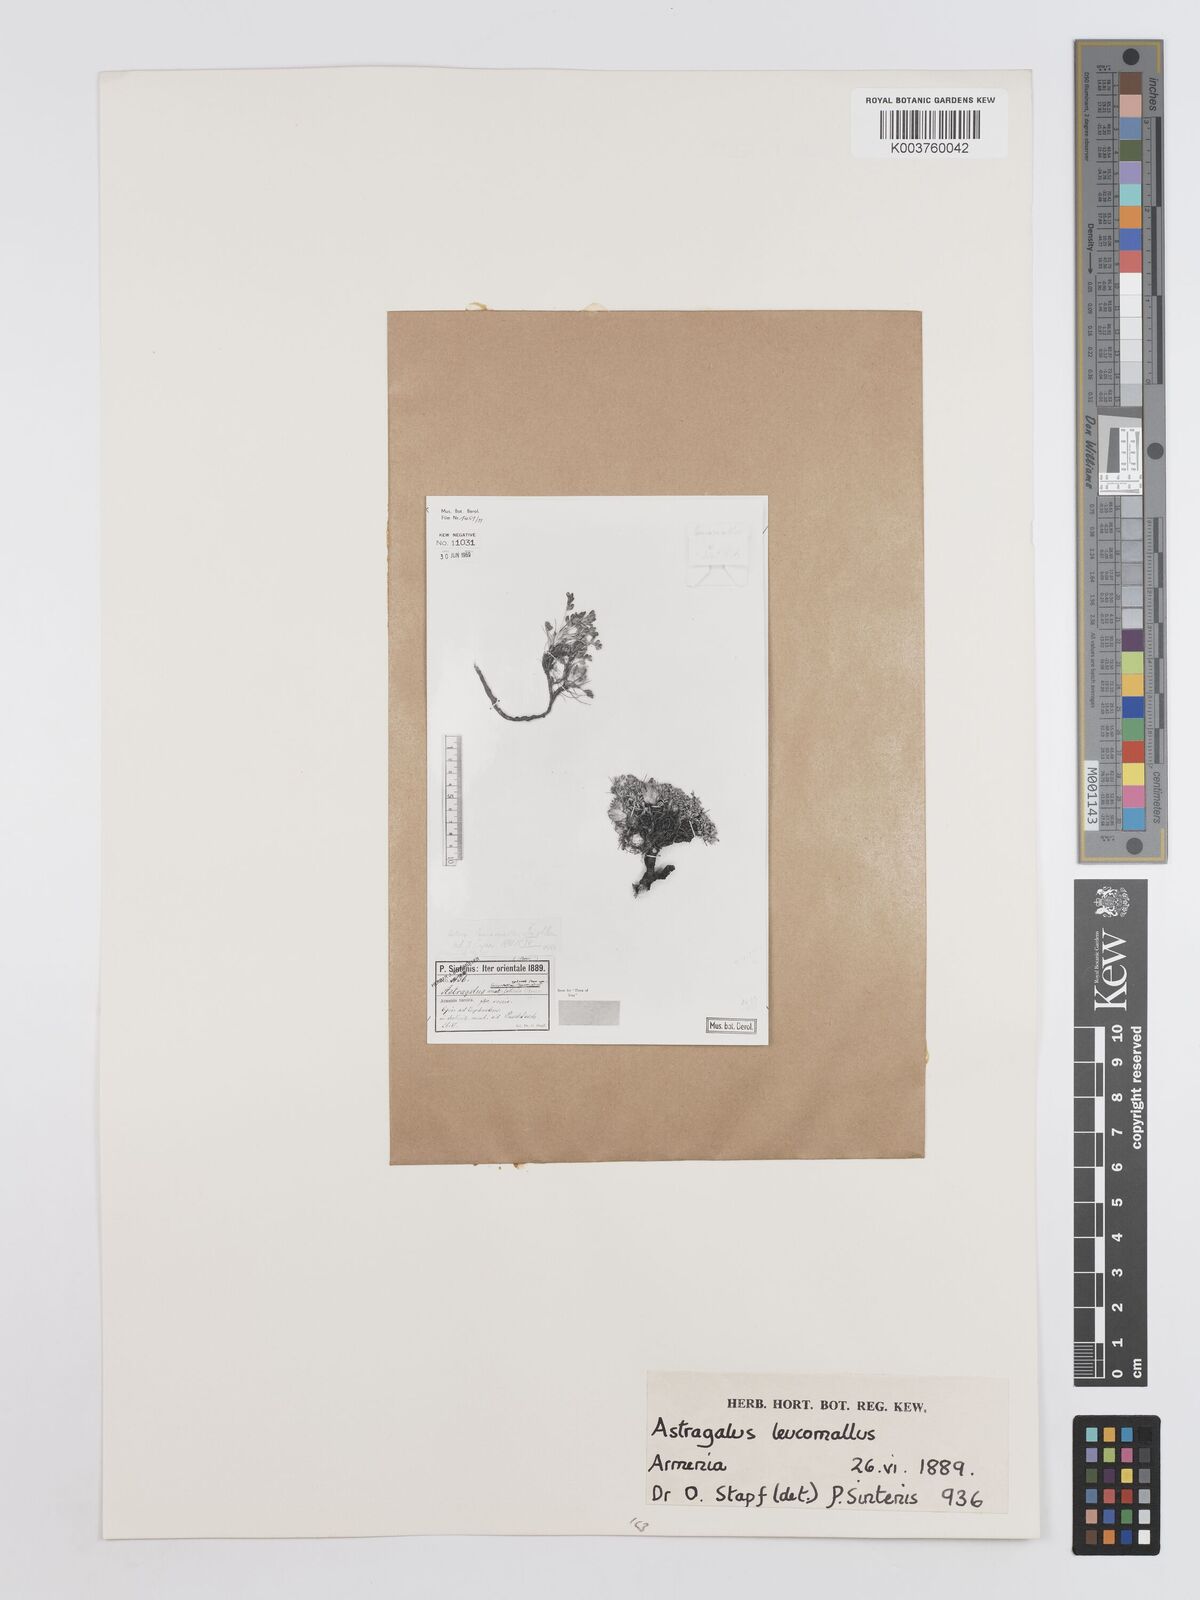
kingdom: Plantae
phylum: Tracheophyta
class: Magnoliopsida
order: Fabales
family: Fabaceae
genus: Astragalus
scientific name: Astragalus amatus
